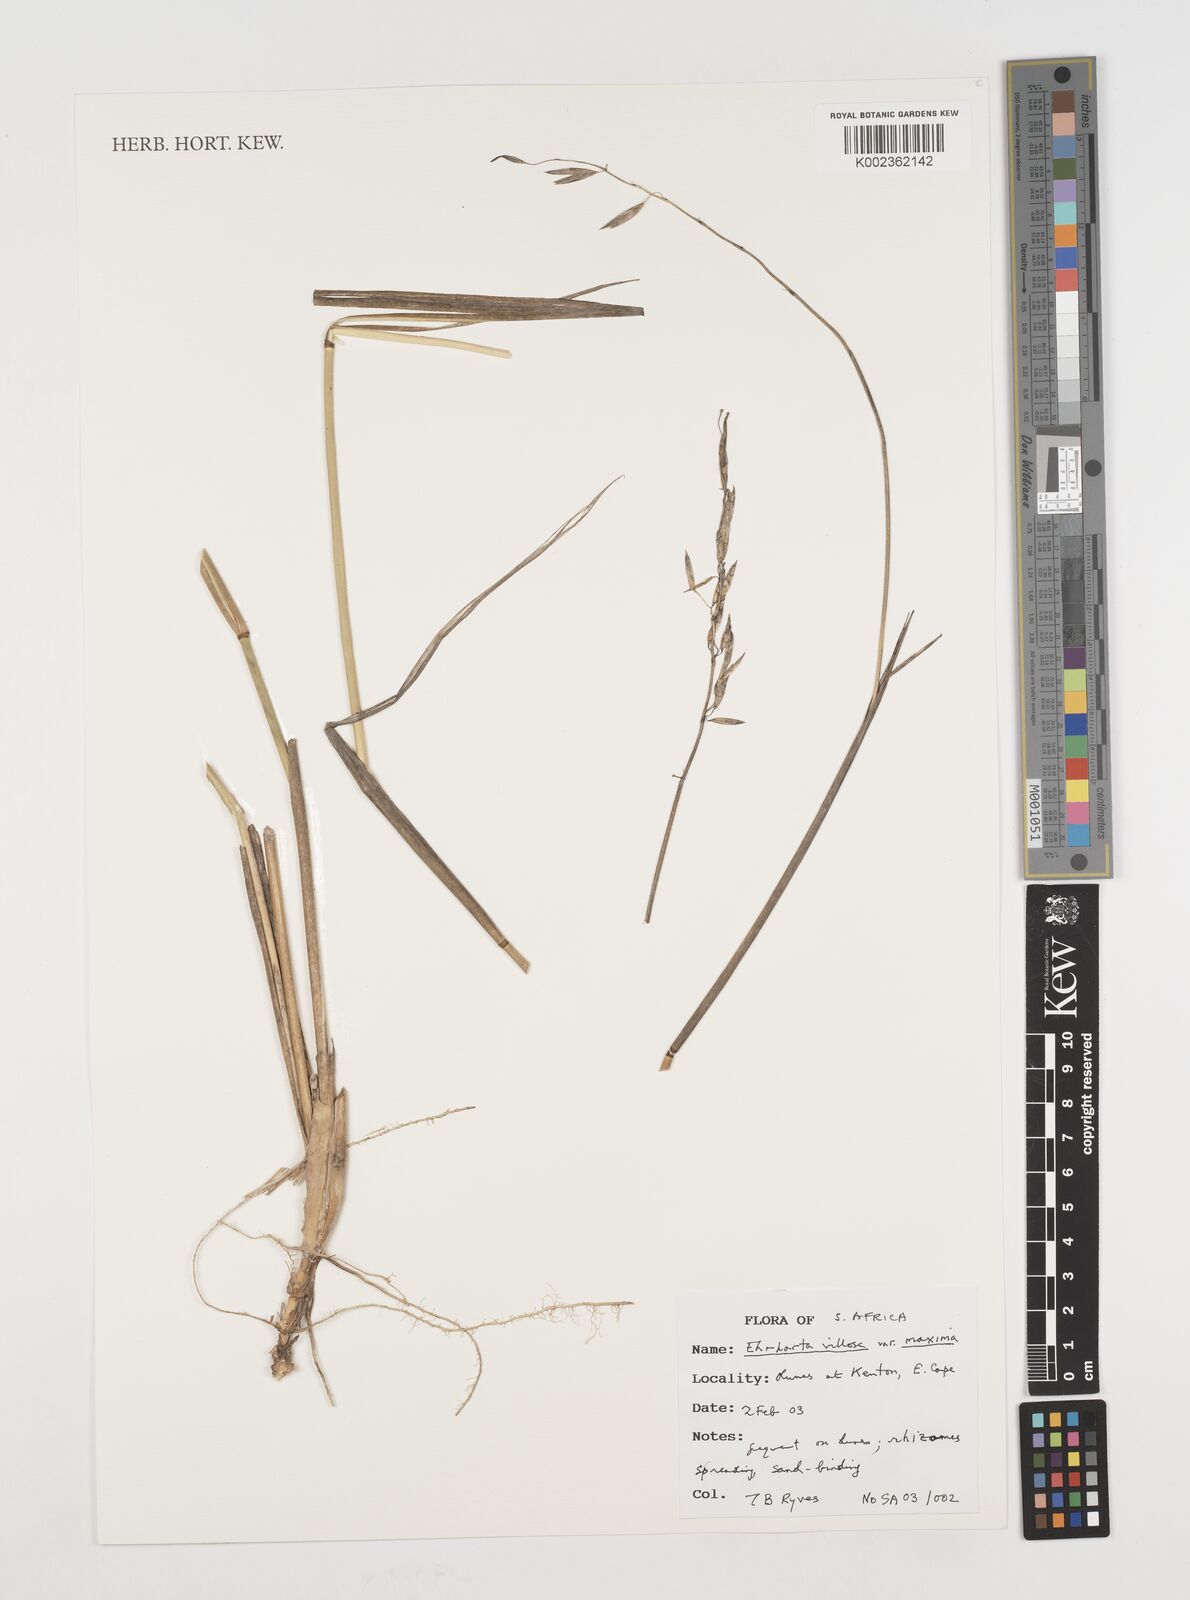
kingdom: Plantae
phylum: Tracheophyta
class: Liliopsida
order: Poales
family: Poaceae
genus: Ehrharta
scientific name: Ehrharta villosa
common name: Pyp grass
